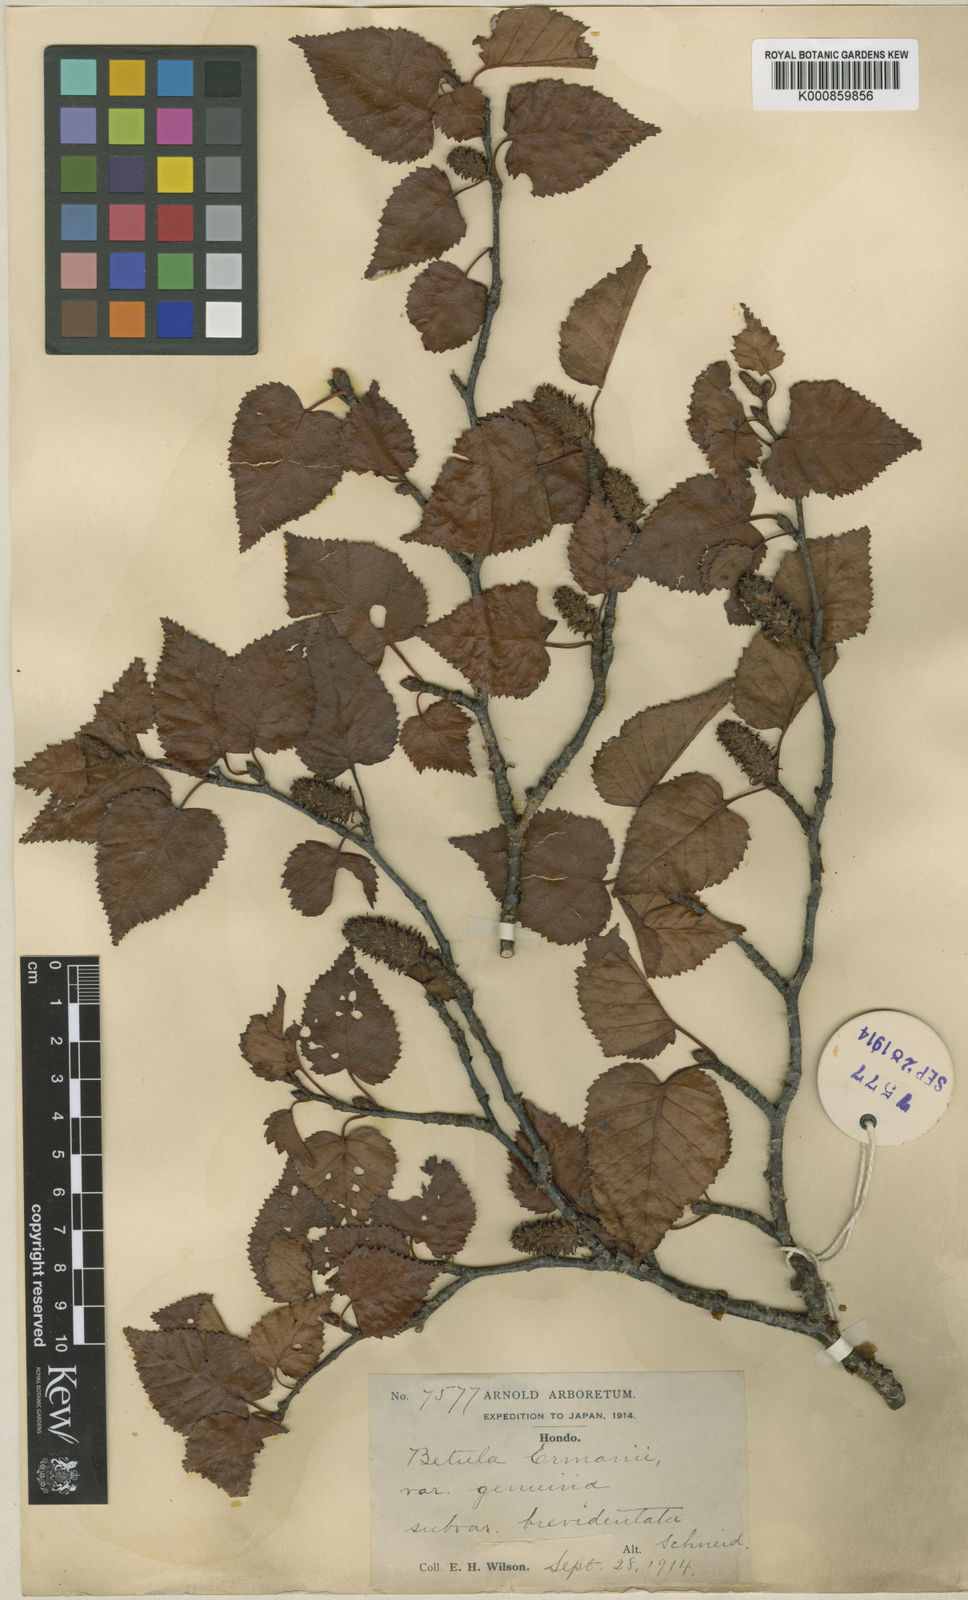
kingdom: Plantae
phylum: Tracheophyta
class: Magnoliopsida
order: Fagales
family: Betulaceae
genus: Betula
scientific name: Betula ermanii
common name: Erman's birch
